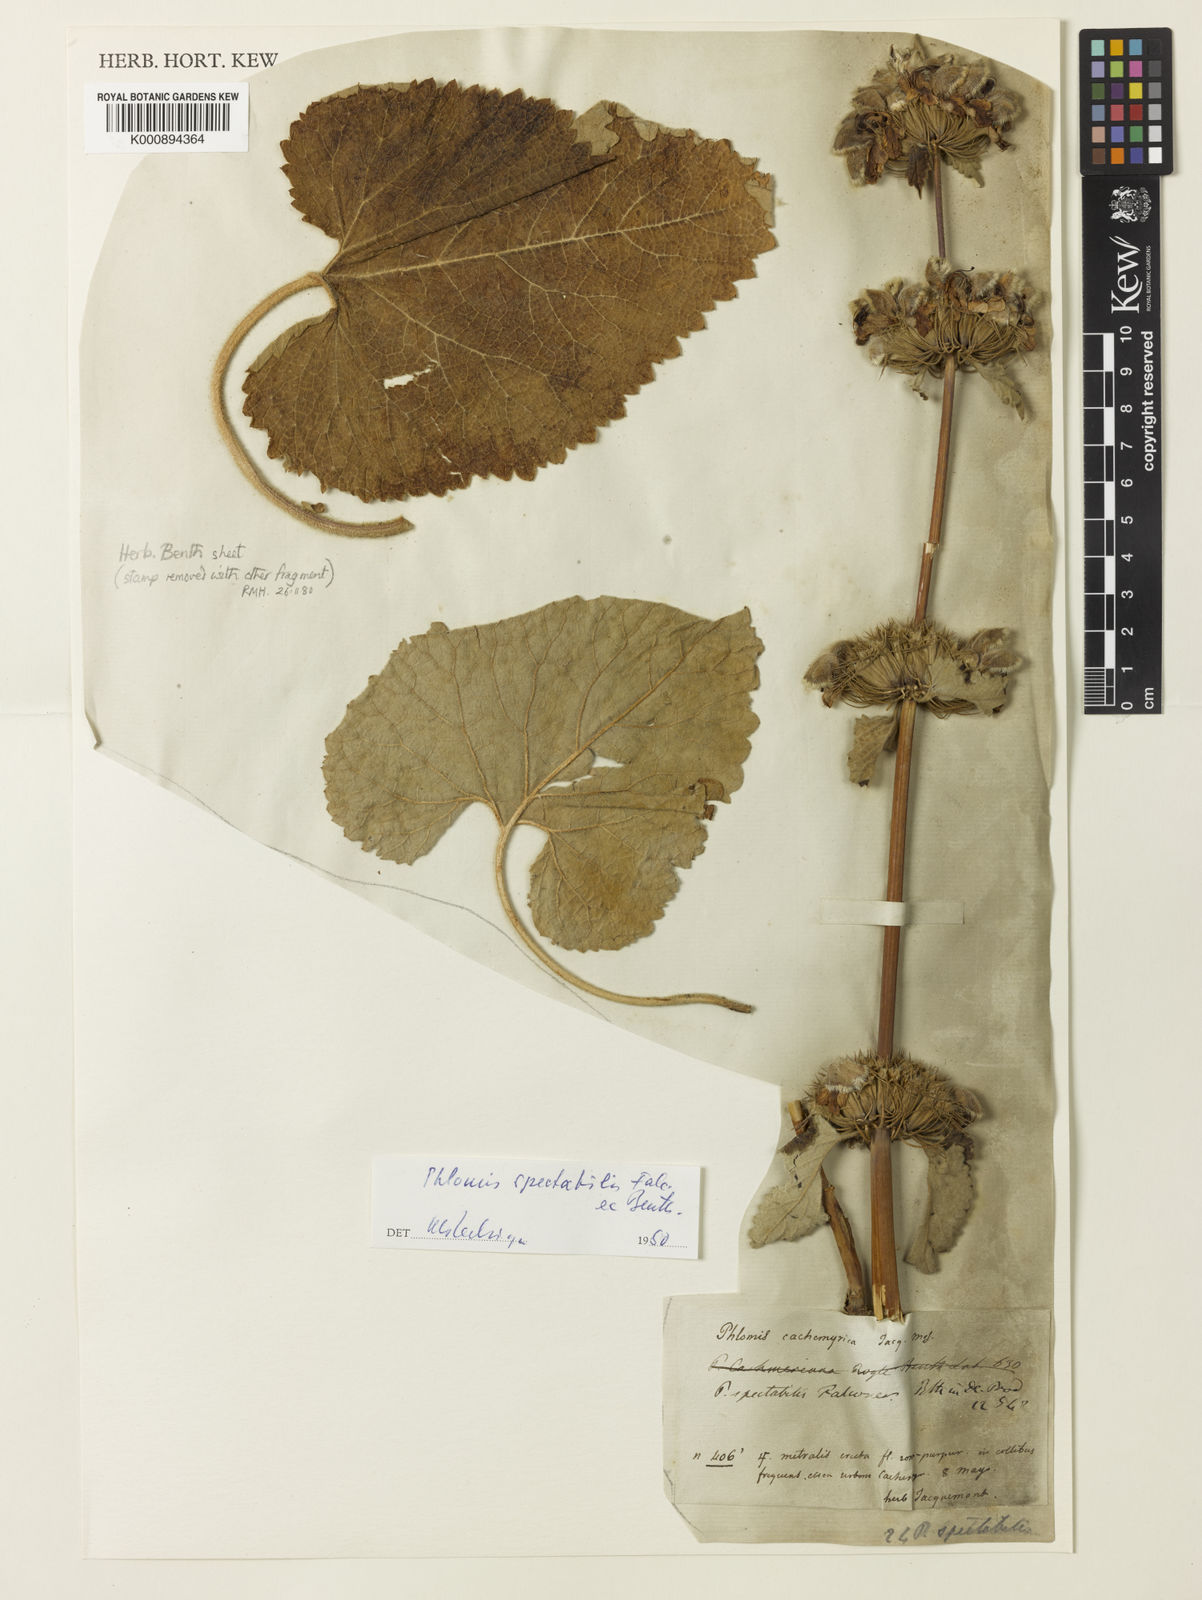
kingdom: Plantae
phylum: Tracheophyta
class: Magnoliopsida
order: Lamiales
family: Lamiaceae
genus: Phlomoides
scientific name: Phlomoides spectabilis
